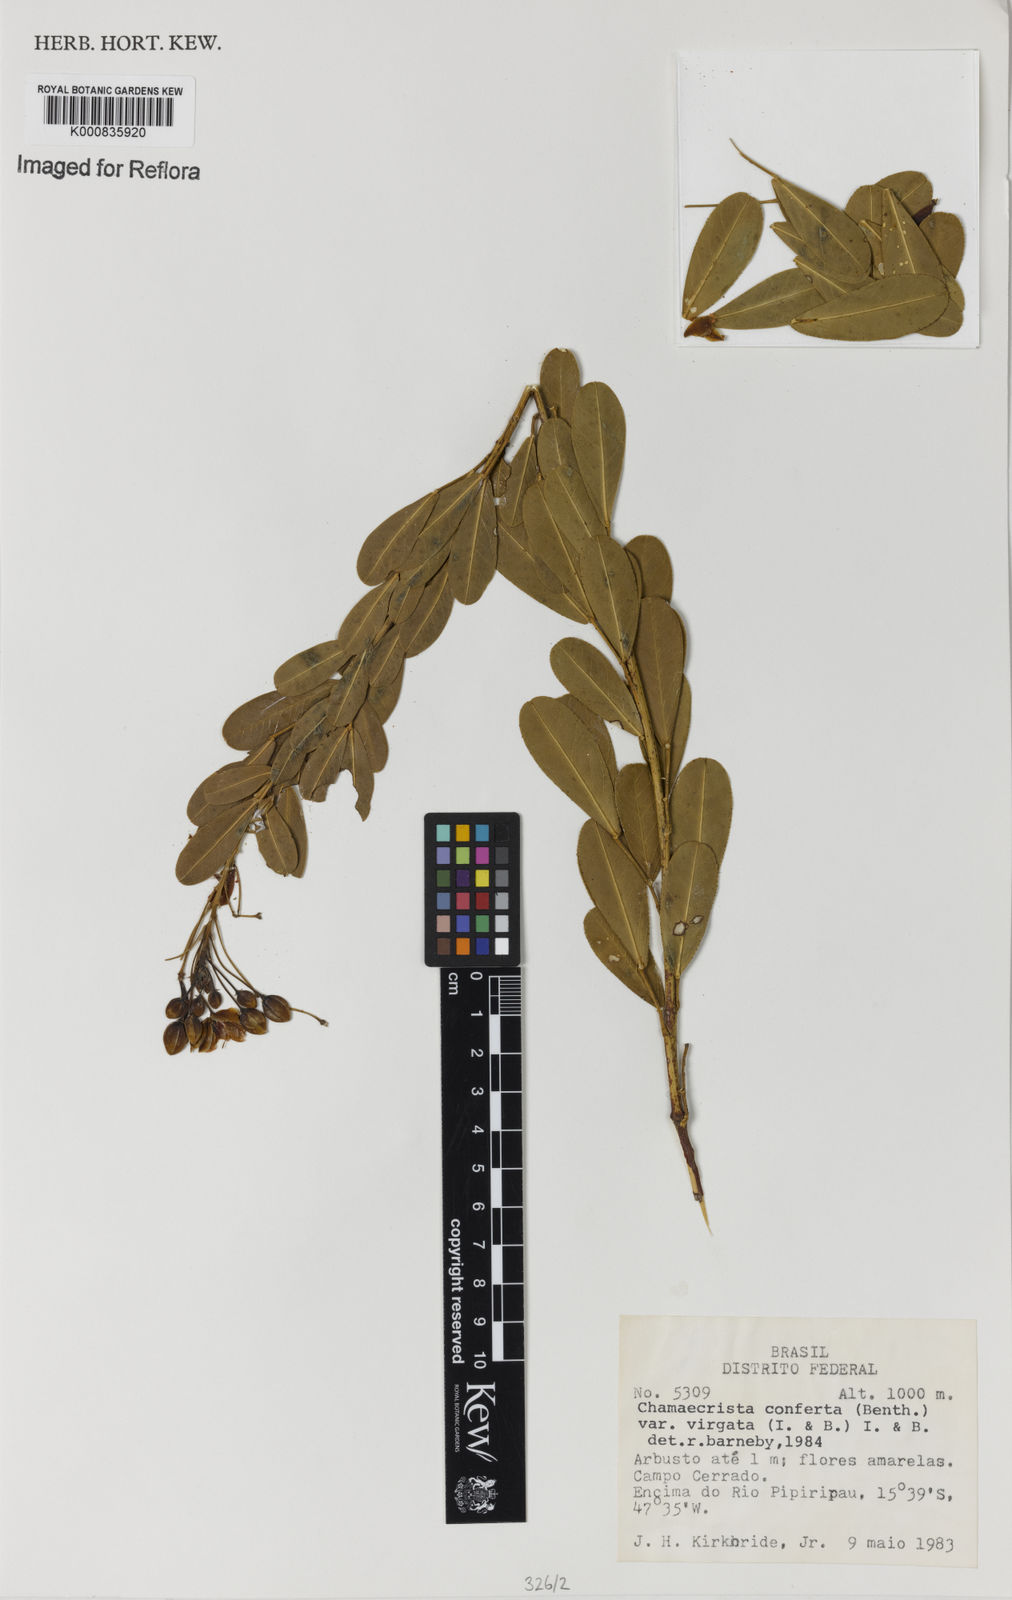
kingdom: Plantae
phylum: Tracheophyta
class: Magnoliopsida
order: Fabales
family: Fabaceae
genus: Chamaecrista
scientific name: Chamaecrista conferta
